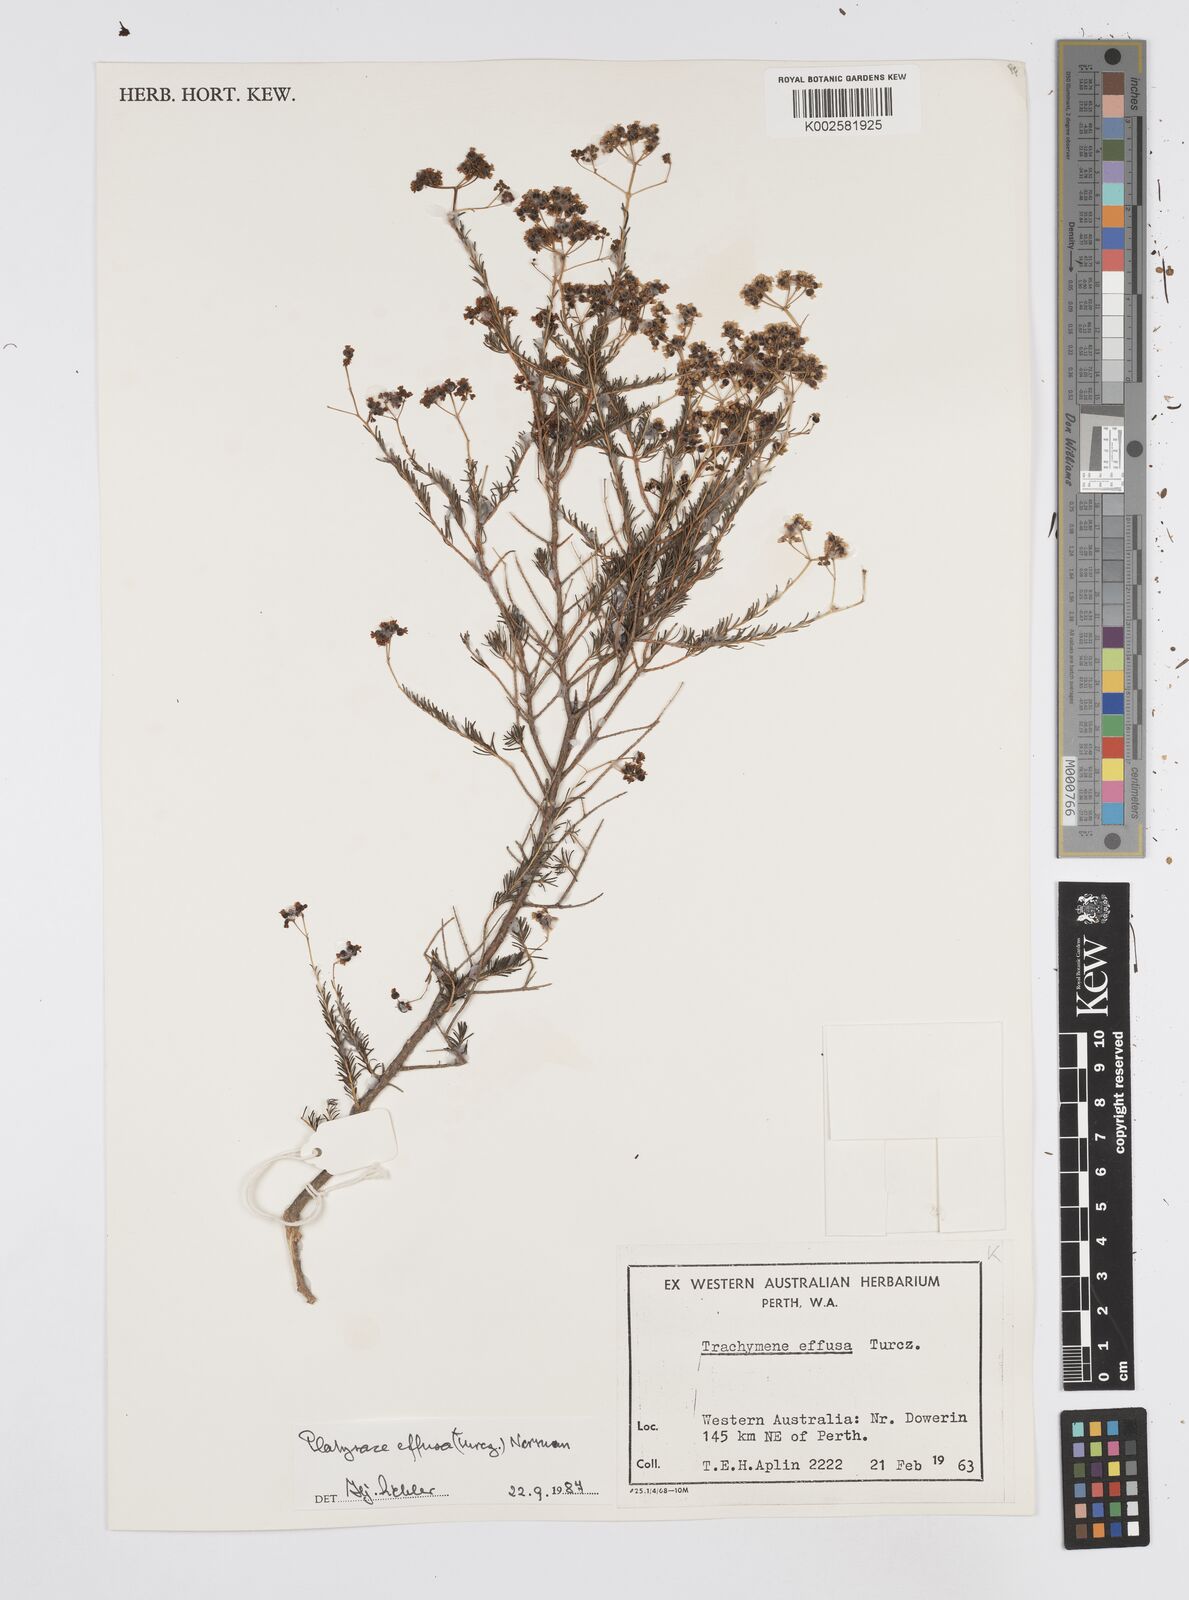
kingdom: Plantae
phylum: Tracheophyta
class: Magnoliopsida
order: Apiales
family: Apiaceae
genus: Platysace
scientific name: Platysace effusa
